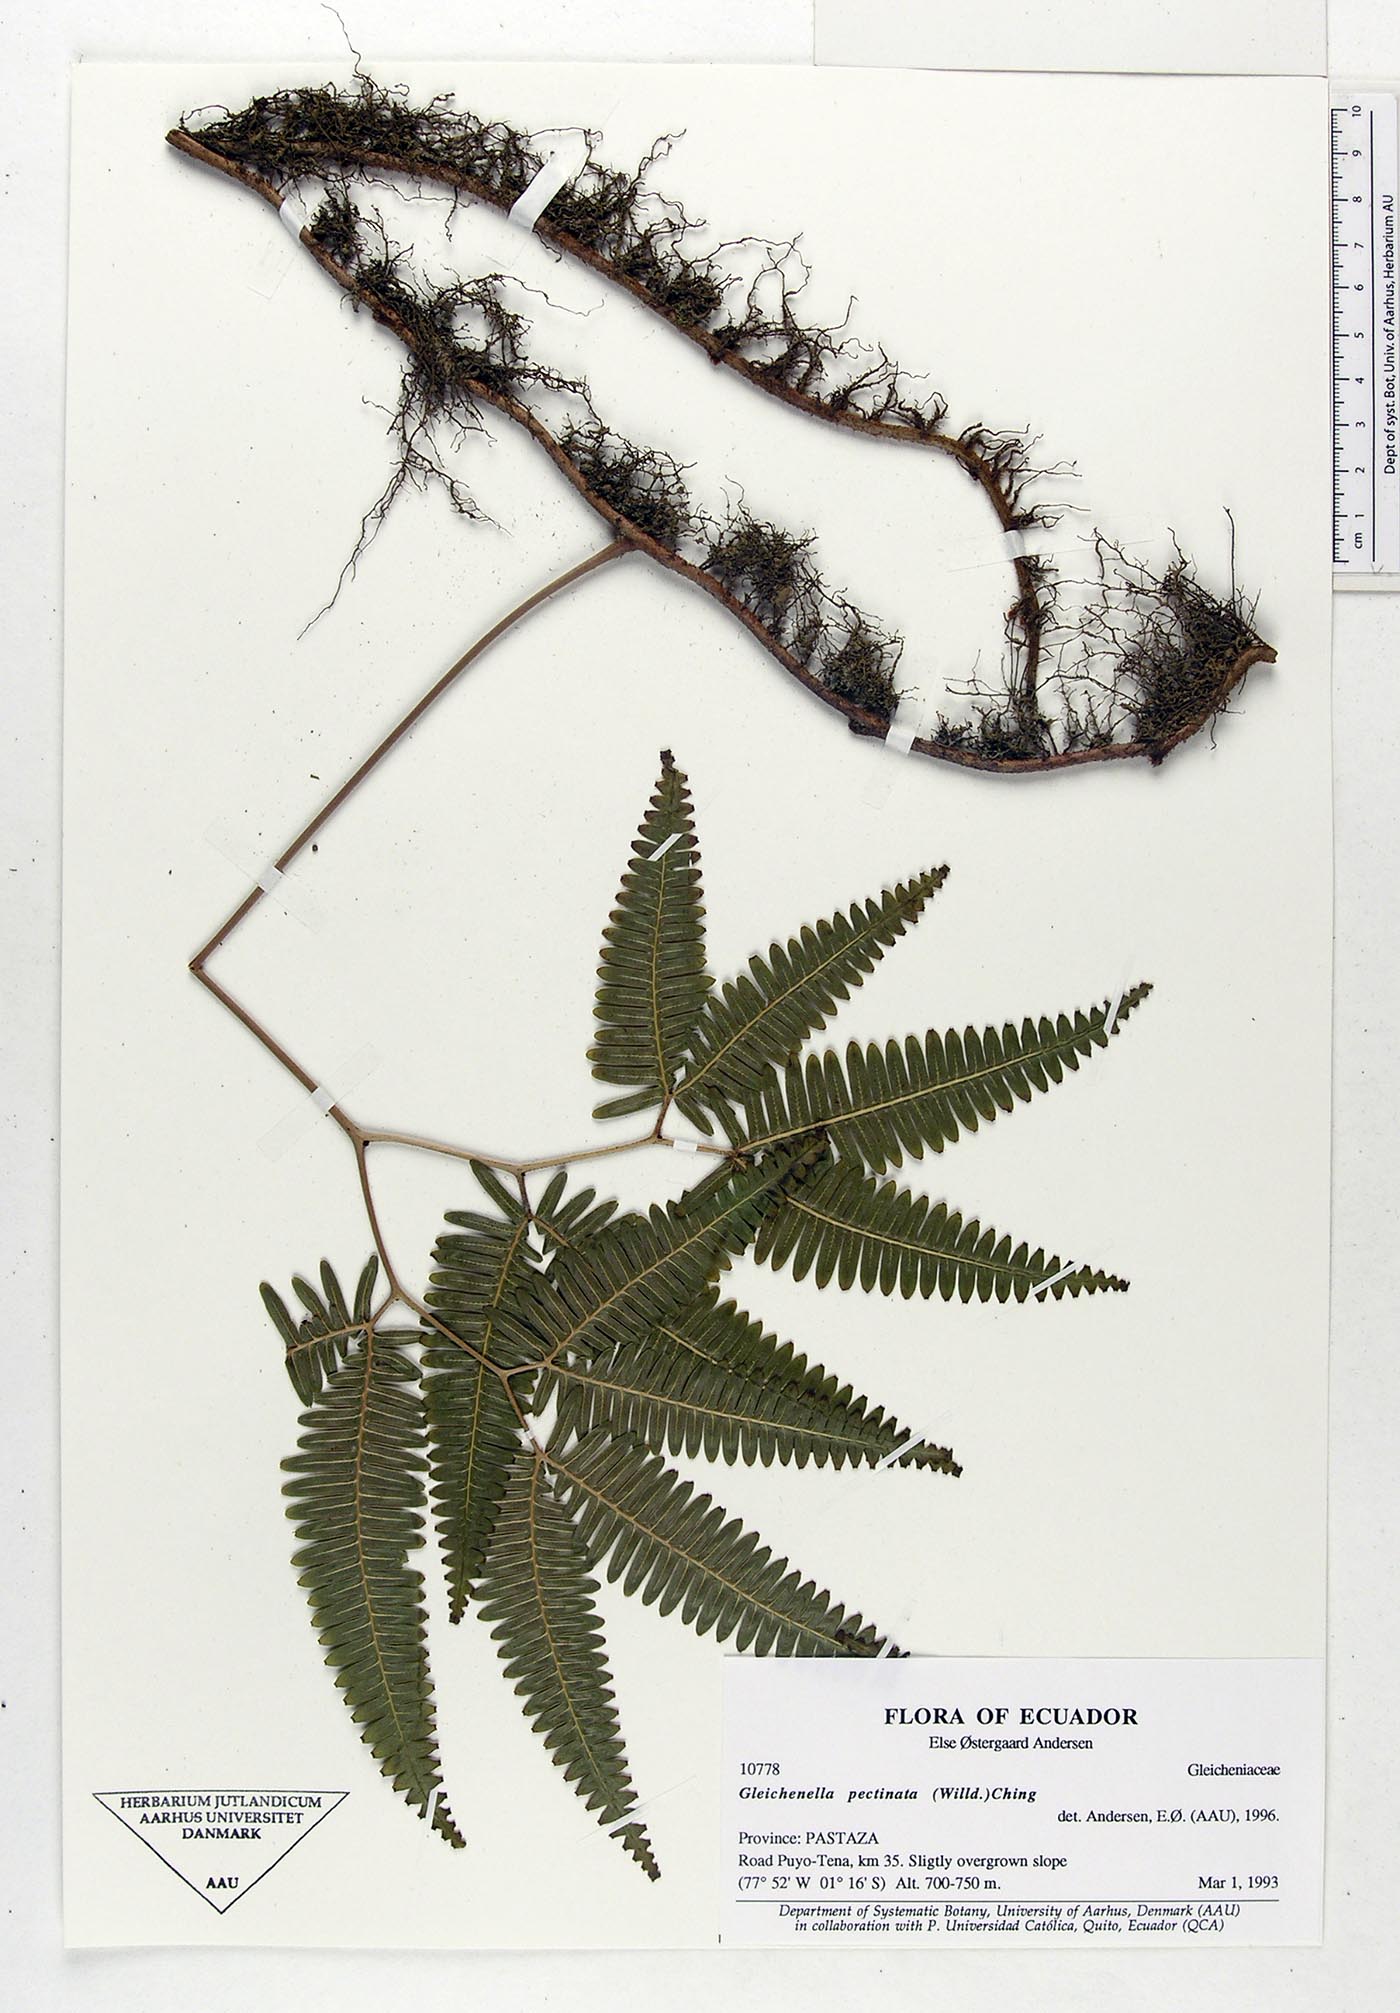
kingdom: Plantae
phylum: Tracheophyta
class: Polypodiopsida
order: Gleicheniales
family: Gleicheniaceae
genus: Gleichenella
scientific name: Gleichenella pectinata
